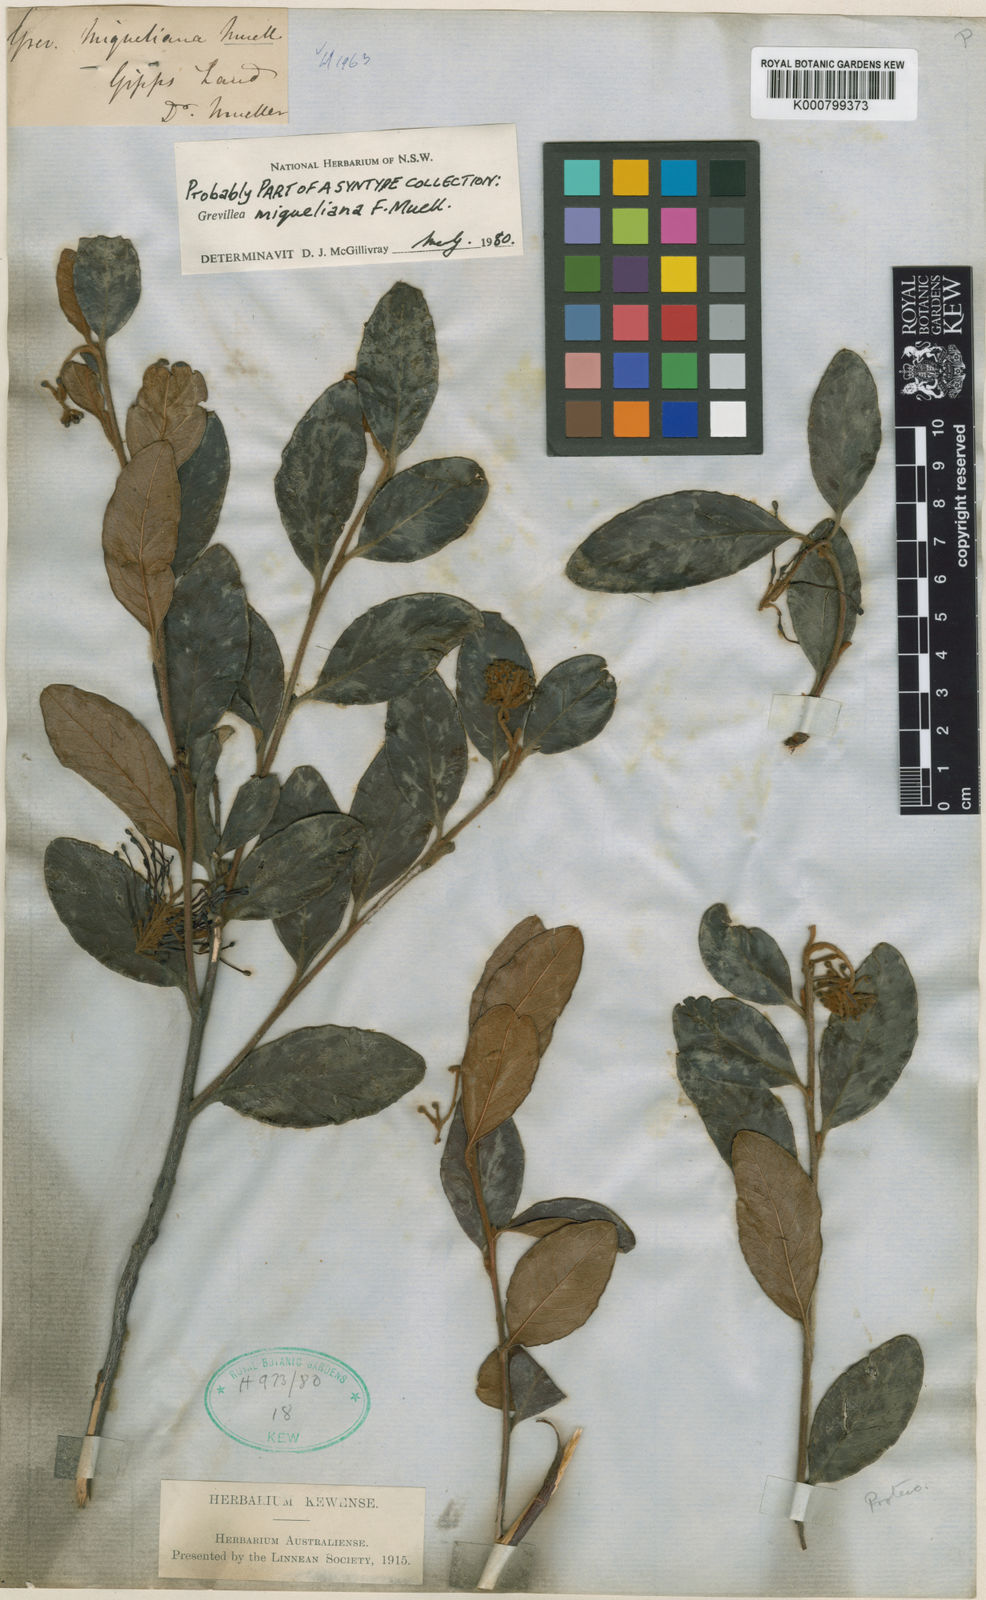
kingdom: Plantae
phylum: Tracheophyta
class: Magnoliopsida
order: Proteales
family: Proteaceae
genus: Grevillea
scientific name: Grevillea miqueliana
